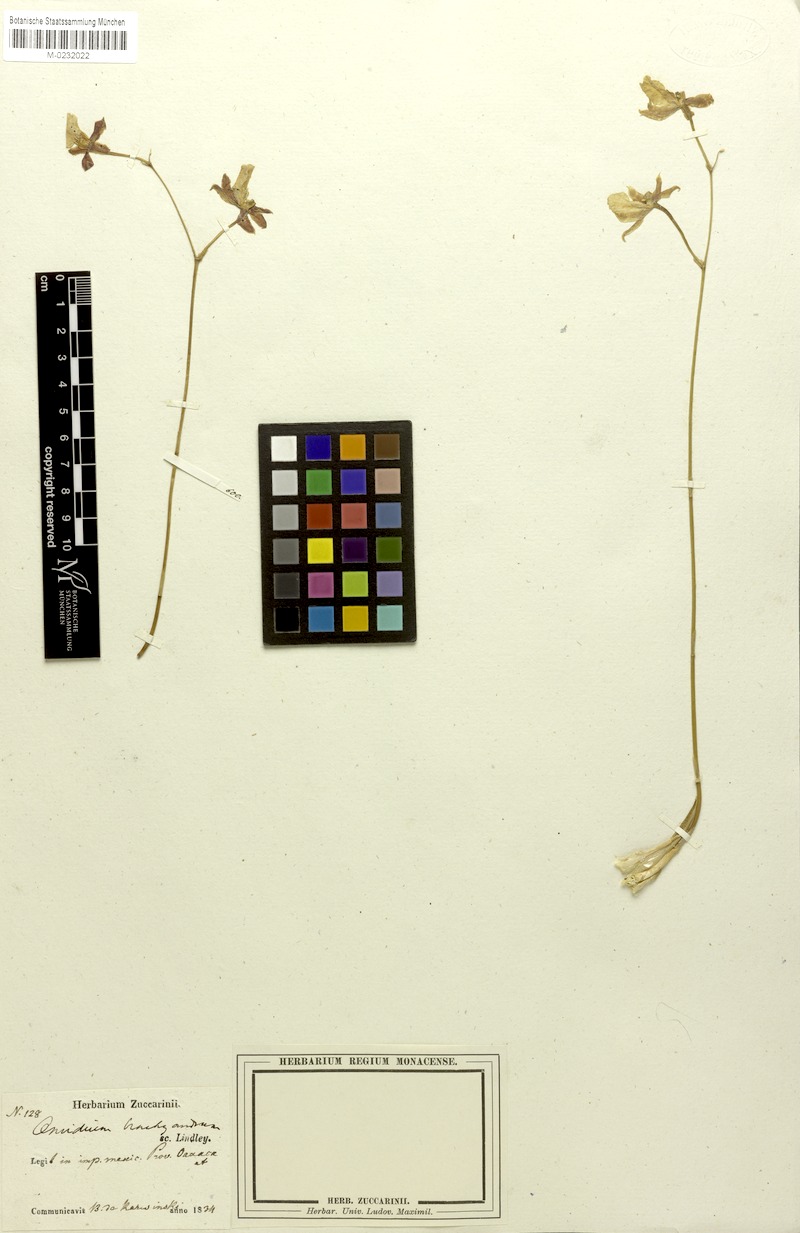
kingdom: Plantae
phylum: Tracheophyta
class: Liliopsida
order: Asparagales
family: Orchidaceae
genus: Oncidium
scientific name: Oncidium brachyandrum
